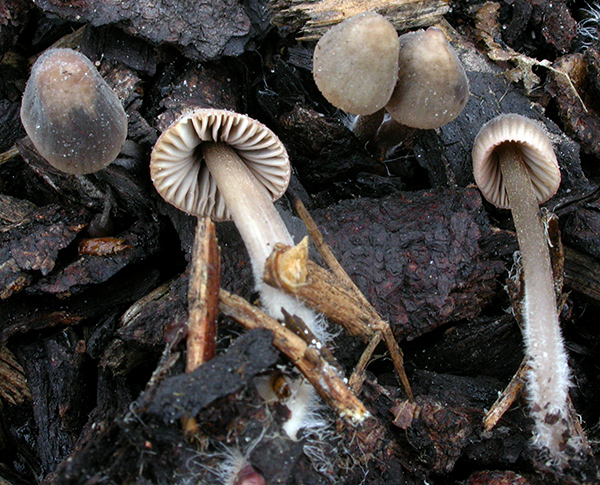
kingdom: Fungi
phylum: Basidiomycota
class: Agaricomycetes
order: Agaricales
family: Mycenaceae
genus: Mycena
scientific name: Mycena capillaripes
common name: nåle-huesvamp
